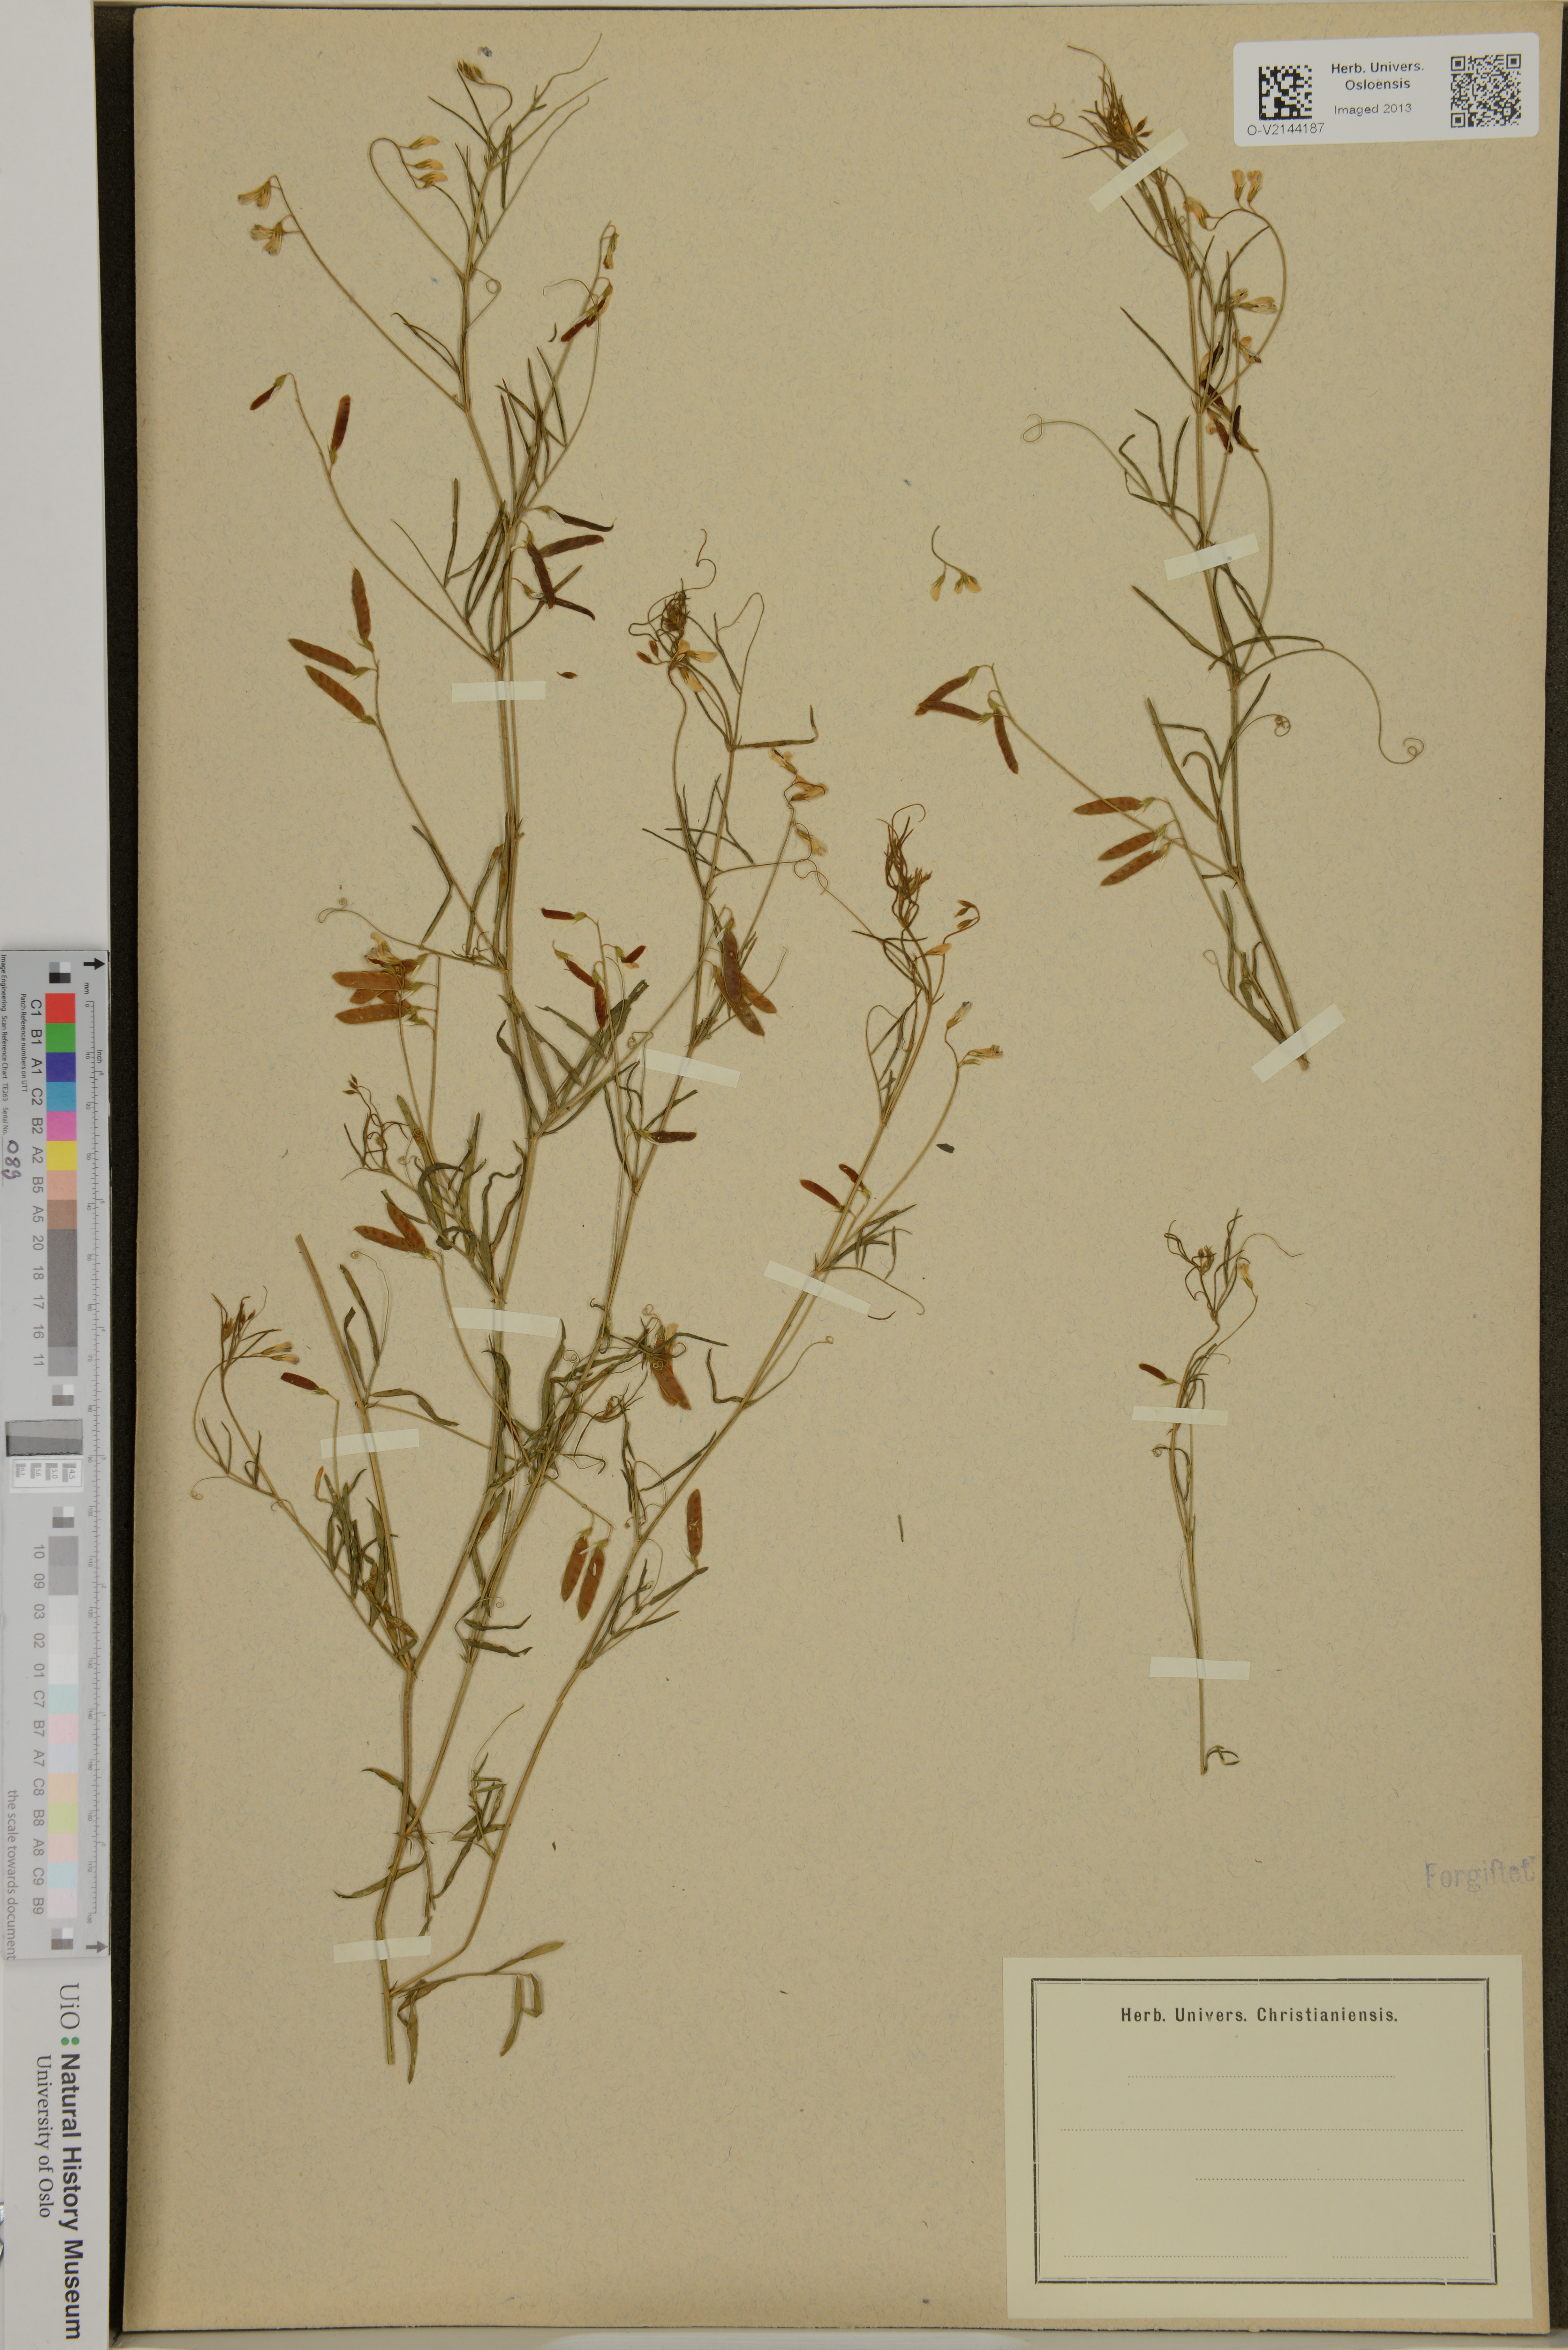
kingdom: Plantae
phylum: Tracheophyta
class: Magnoliopsida
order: Fabales
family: Fabaceae
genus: Lathyrus
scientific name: Lathyrus
